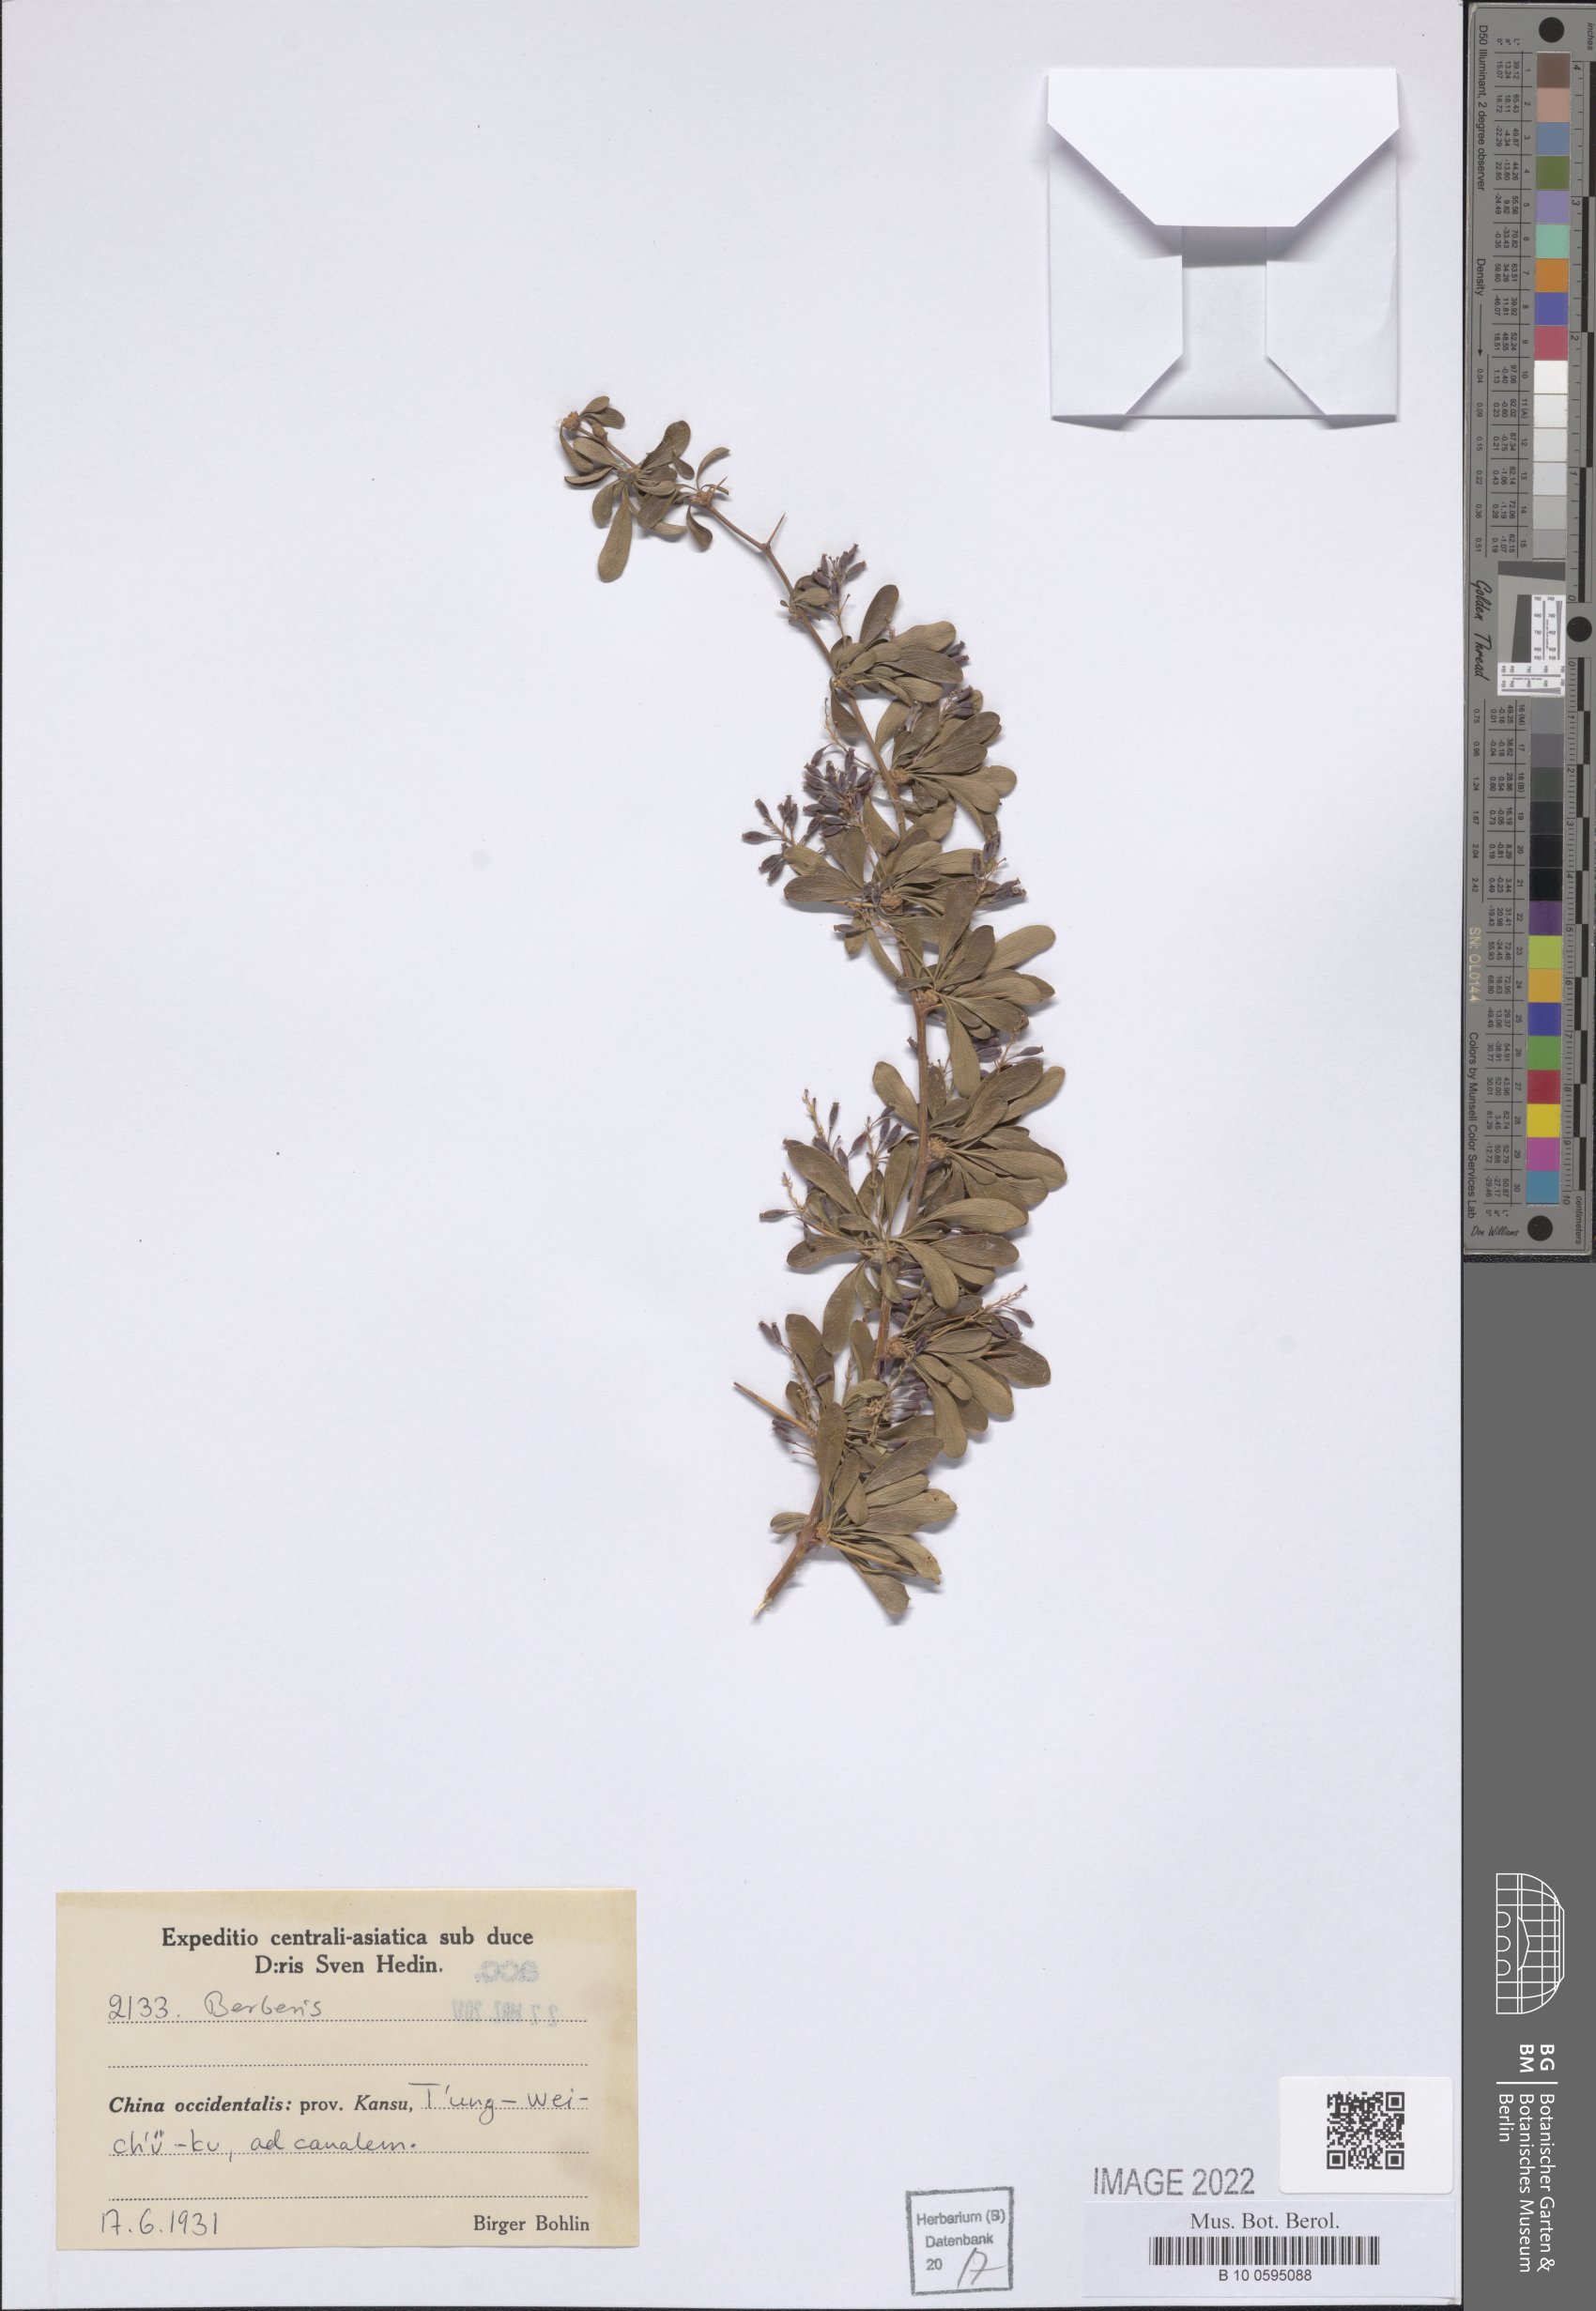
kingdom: Plantae
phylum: Tracheophyta
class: Magnoliopsida
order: Ranunculales
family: Berberidaceae
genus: Berberis
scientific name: Berberis
